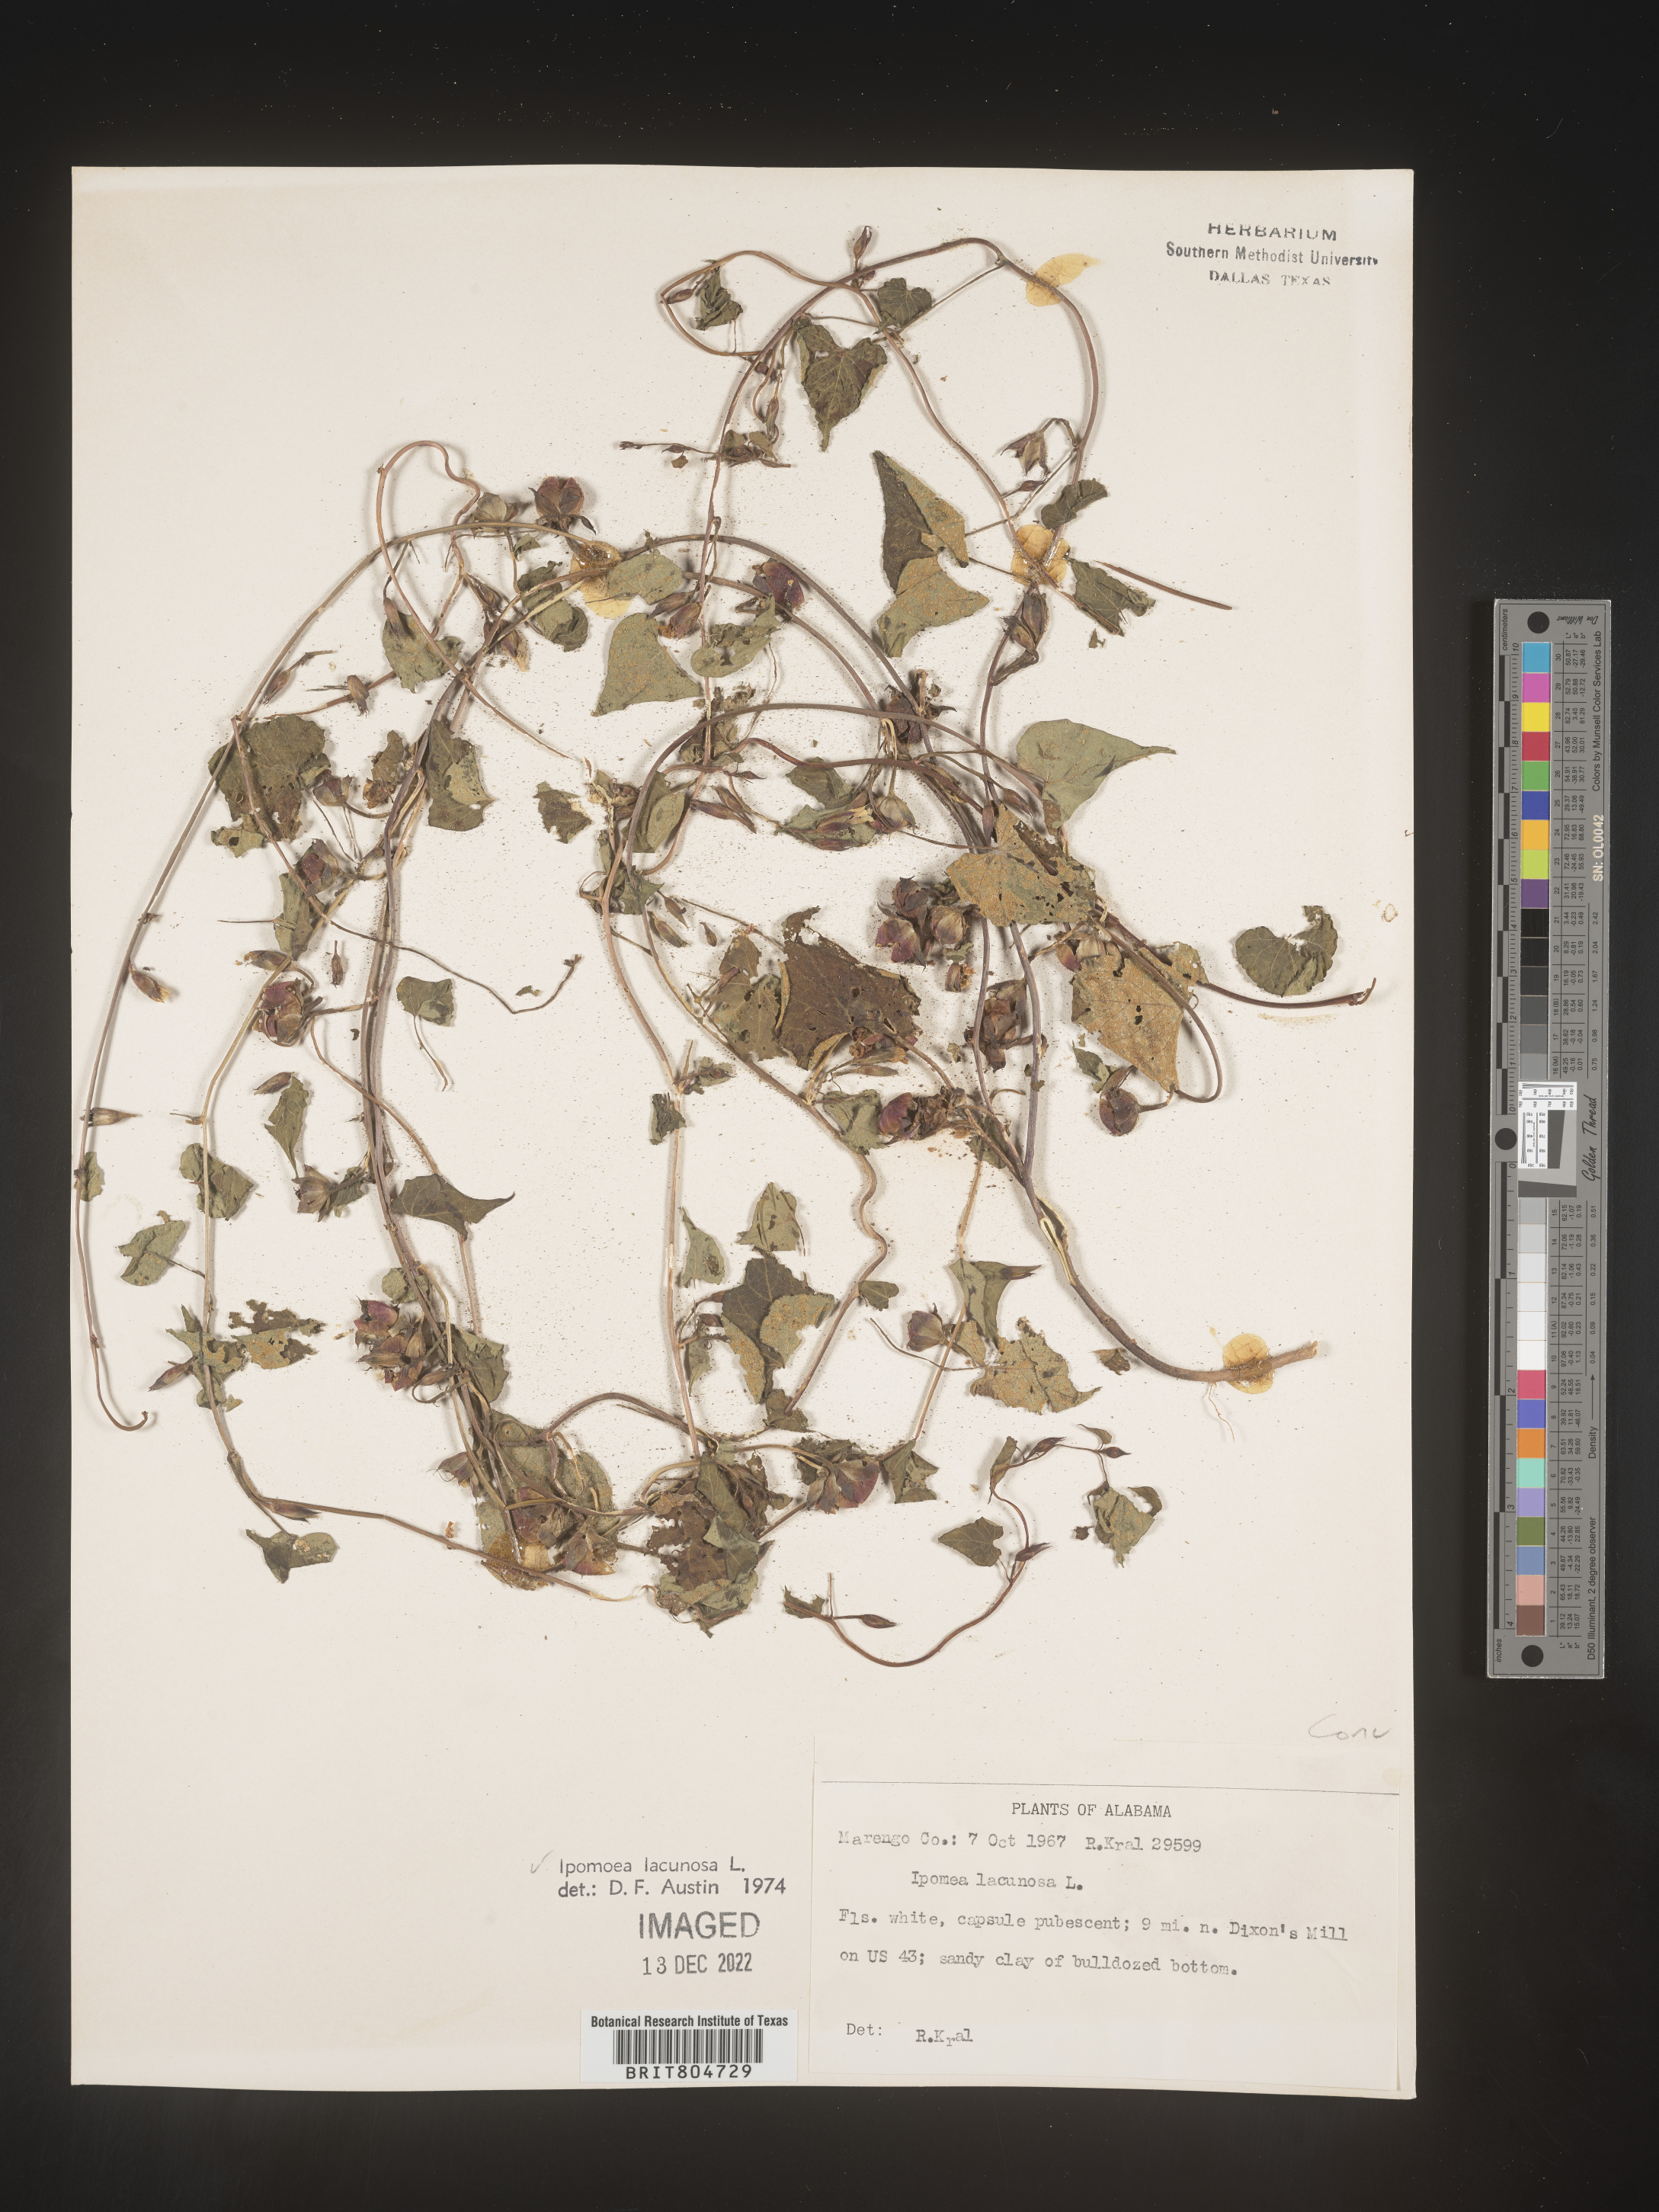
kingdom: Plantae
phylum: Tracheophyta
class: Magnoliopsida
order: Solanales
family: Convolvulaceae
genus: Ipomoea
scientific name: Ipomoea lacunosa
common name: White morning-glory
